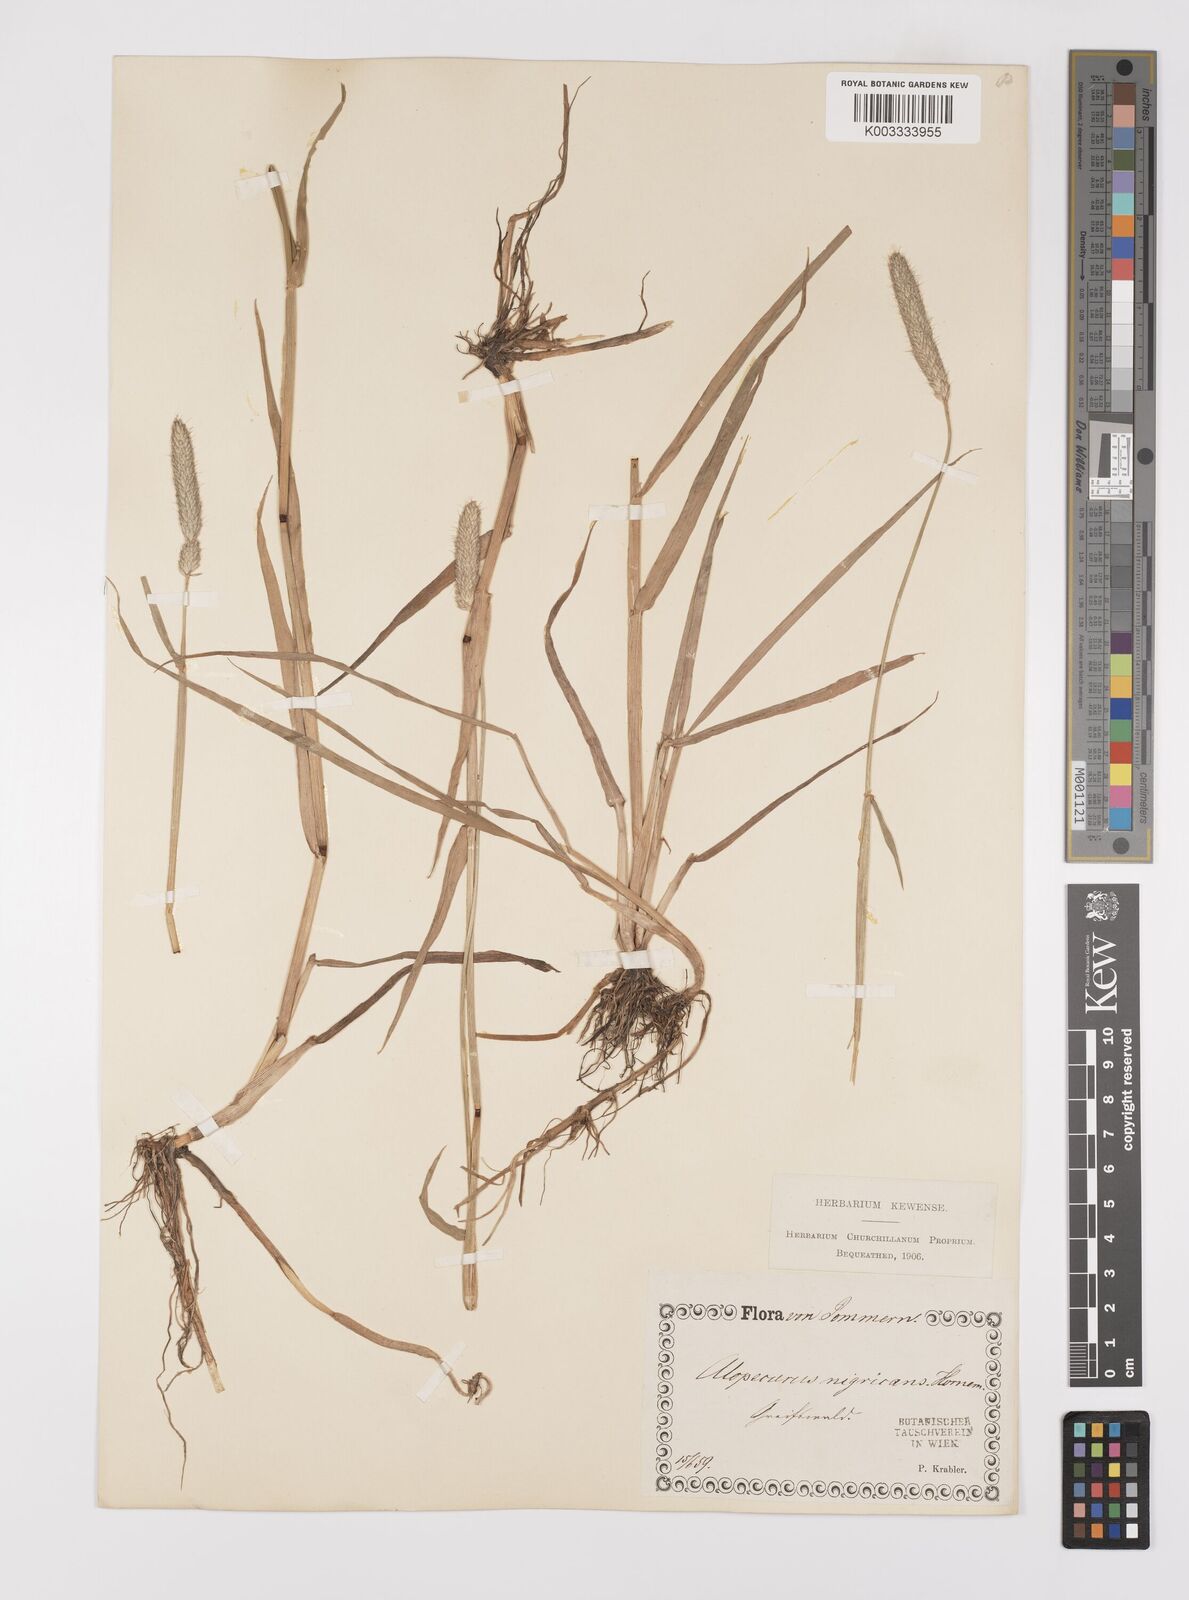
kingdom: Plantae
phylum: Tracheophyta
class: Liliopsida
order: Poales
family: Poaceae
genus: Alopecurus
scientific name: Alopecurus arundinaceus
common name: Creeping meadow foxtail
